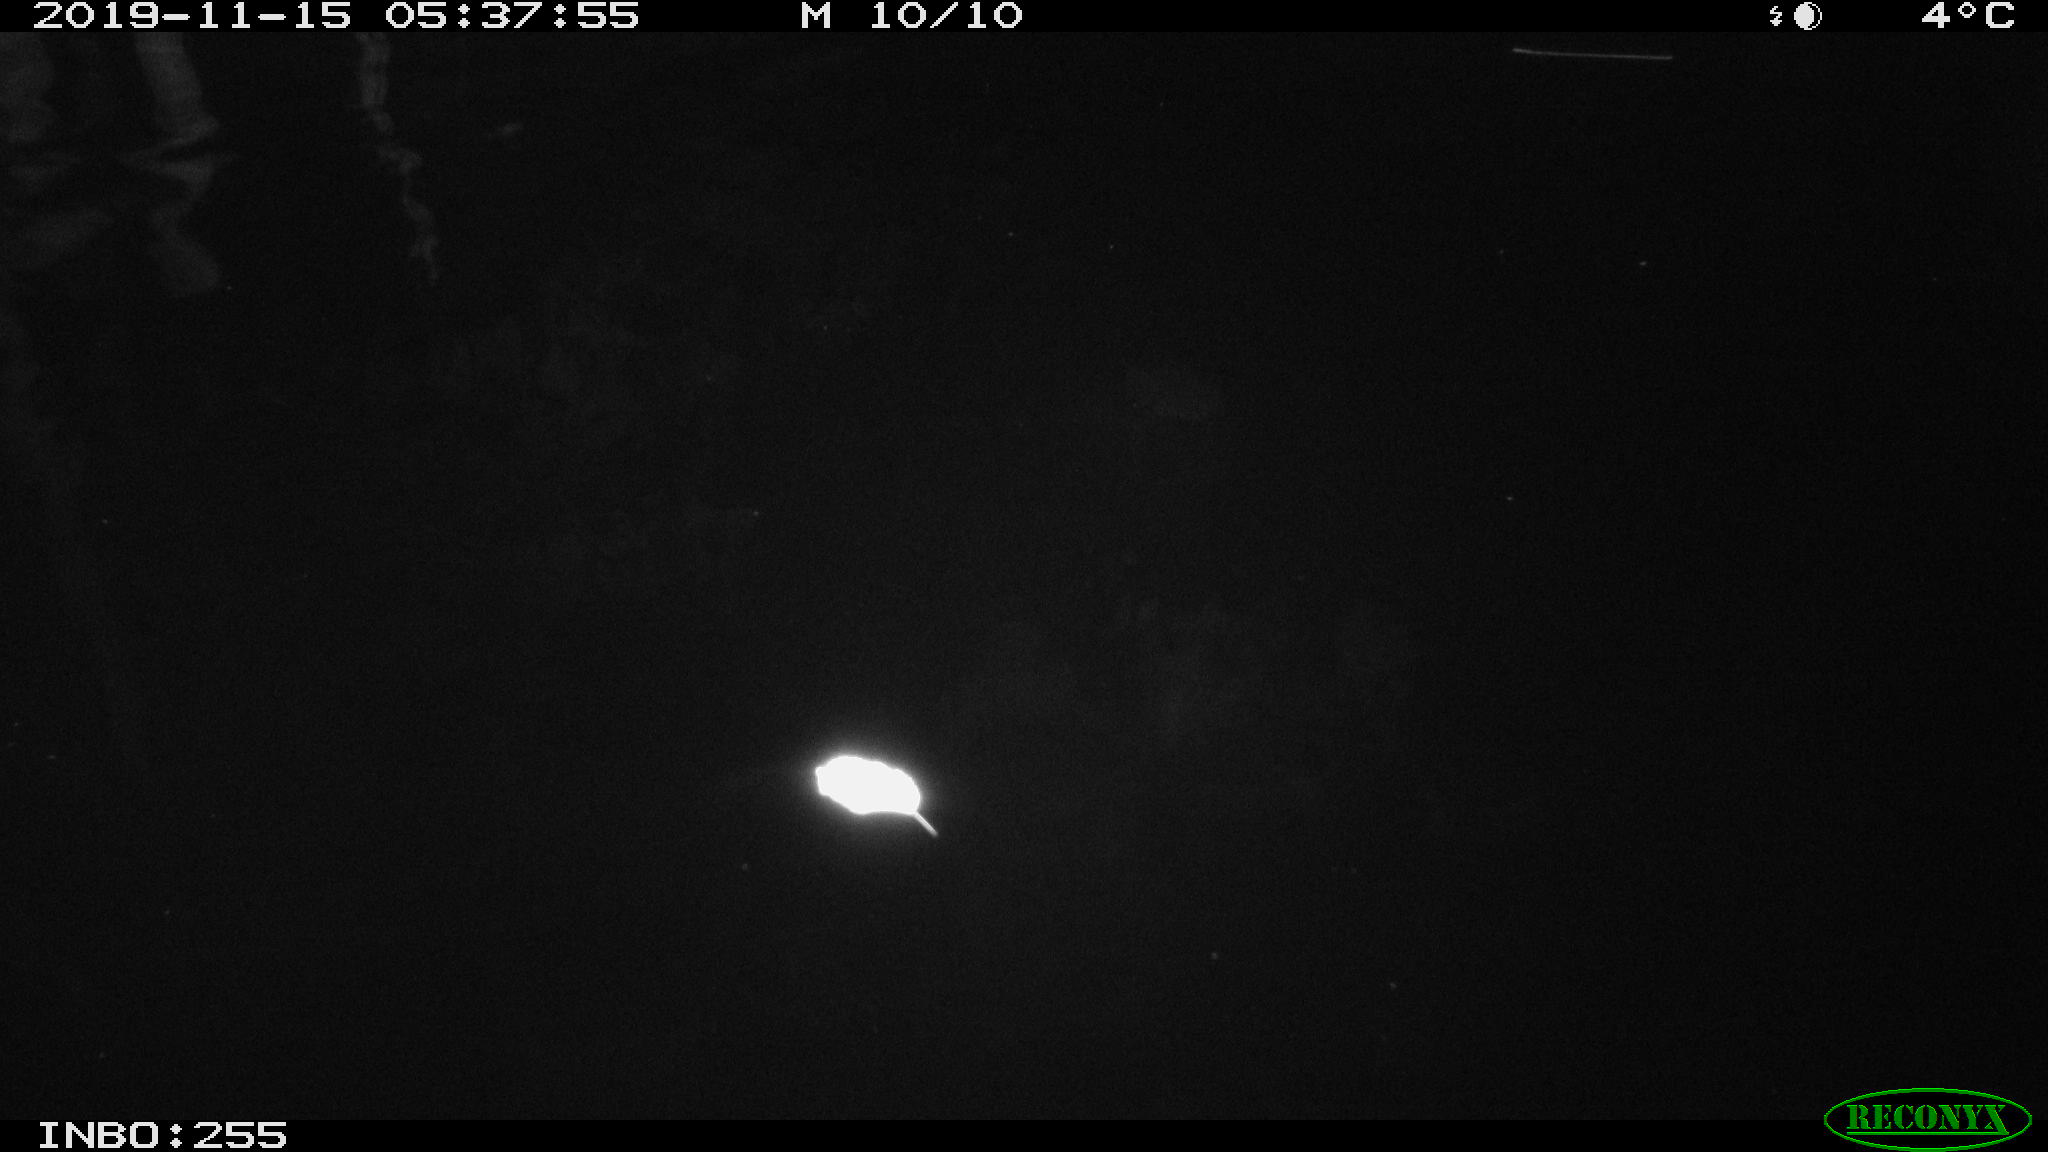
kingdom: Animalia
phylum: Chordata
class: Mammalia
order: Rodentia
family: Cricetidae
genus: Ondatra
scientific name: Ondatra zibethicus
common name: Muskrat
